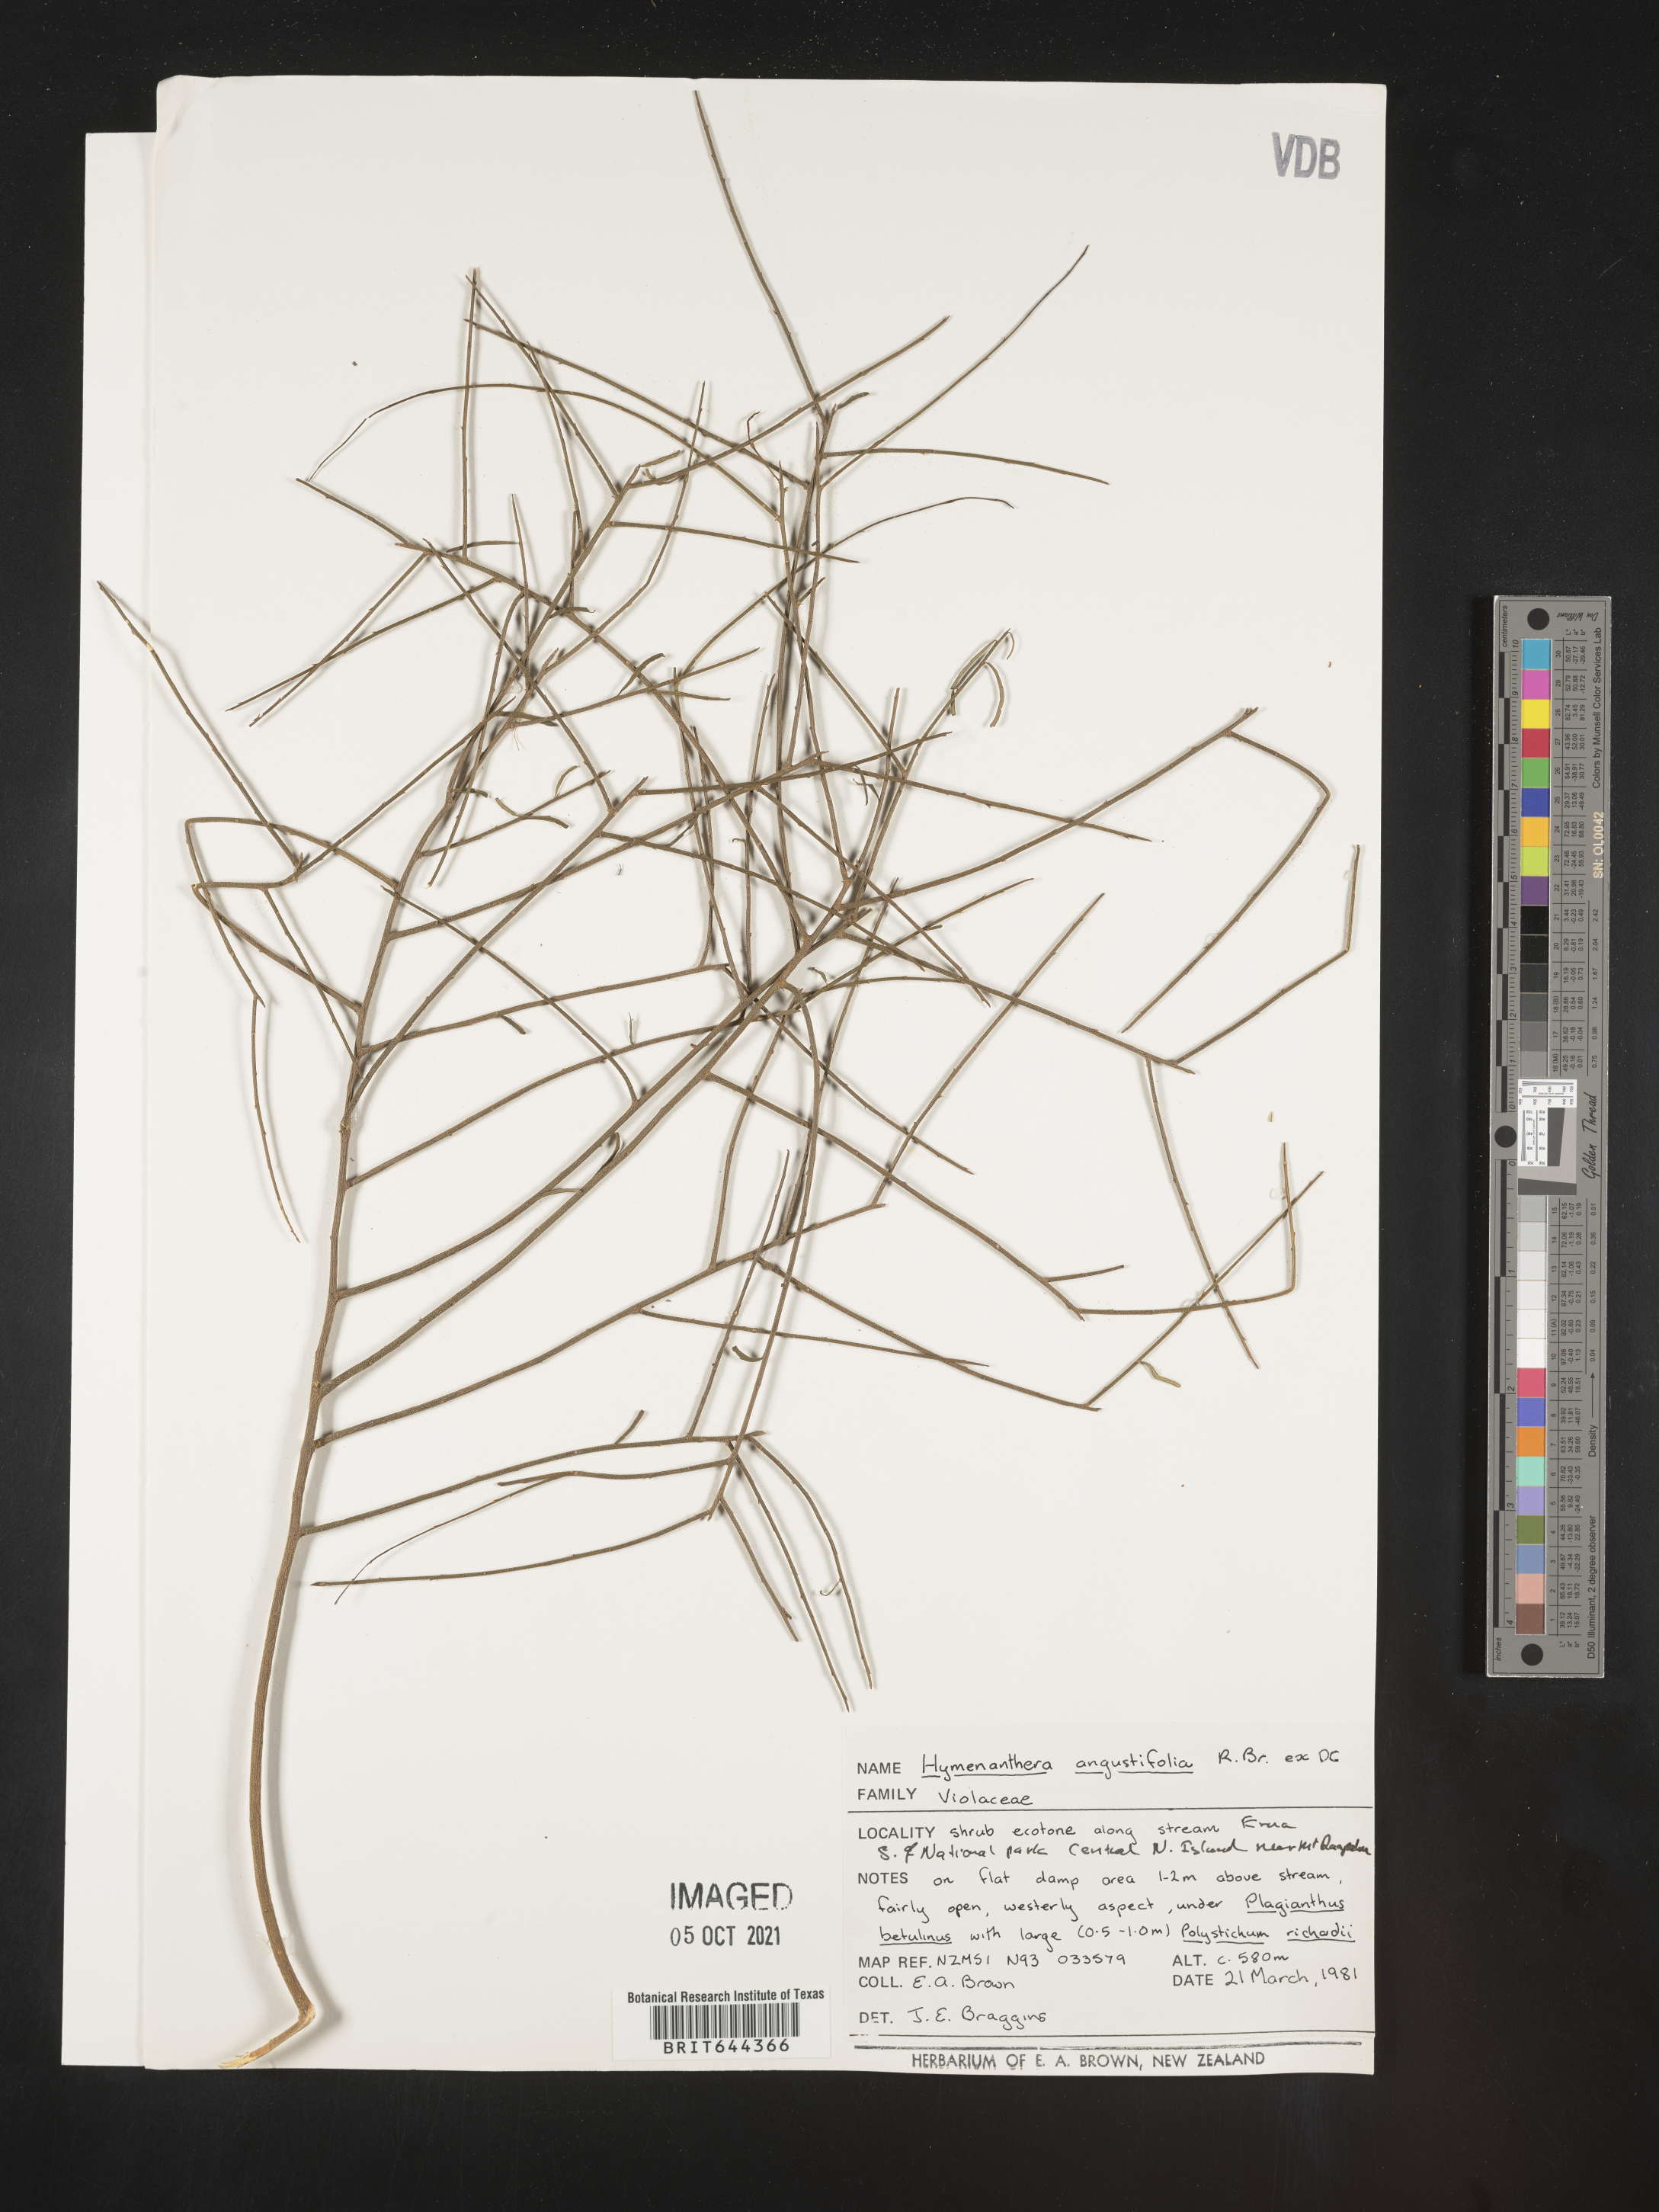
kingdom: Plantae
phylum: Tracheophyta
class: Magnoliopsida
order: Malpighiales
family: Violaceae
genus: Melicytus
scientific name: Melicytus
